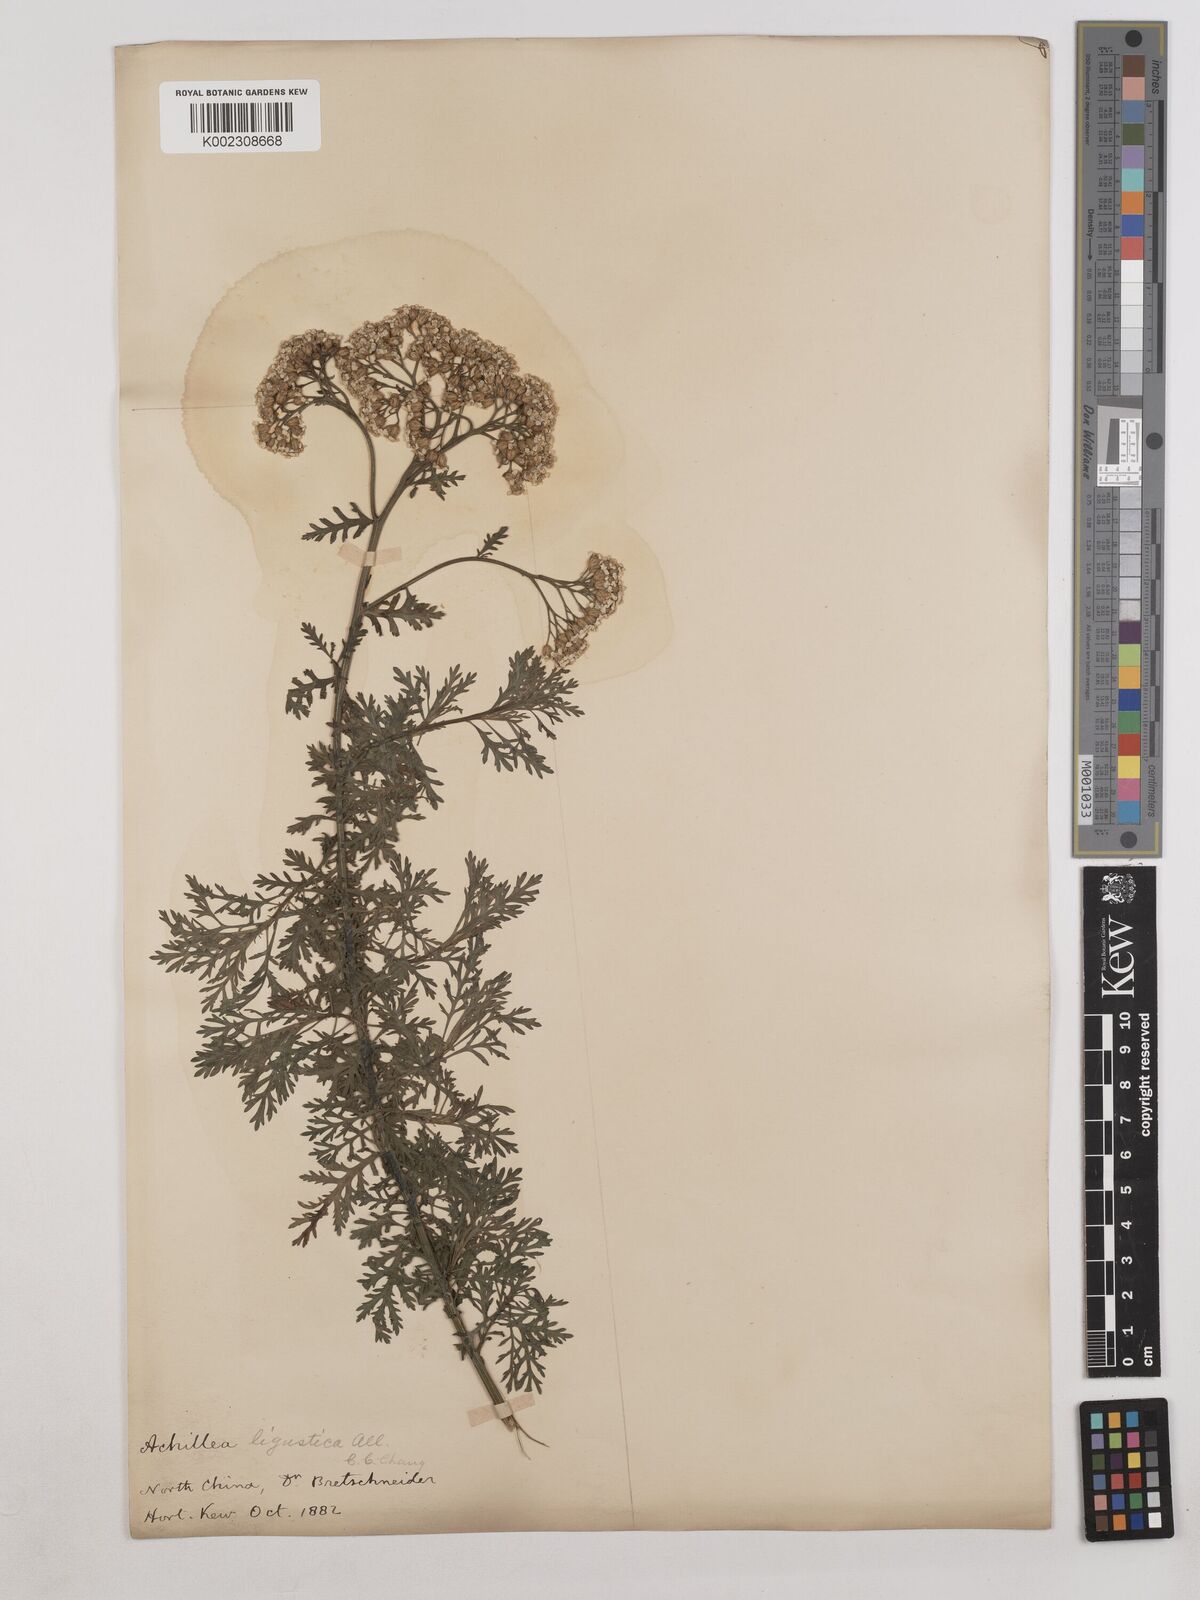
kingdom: Plantae
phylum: Tracheophyta
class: Magnoliopsida
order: Asterales
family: Asteraceae
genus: Achillea
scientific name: Achillea ligustica
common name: Southern yarrow
